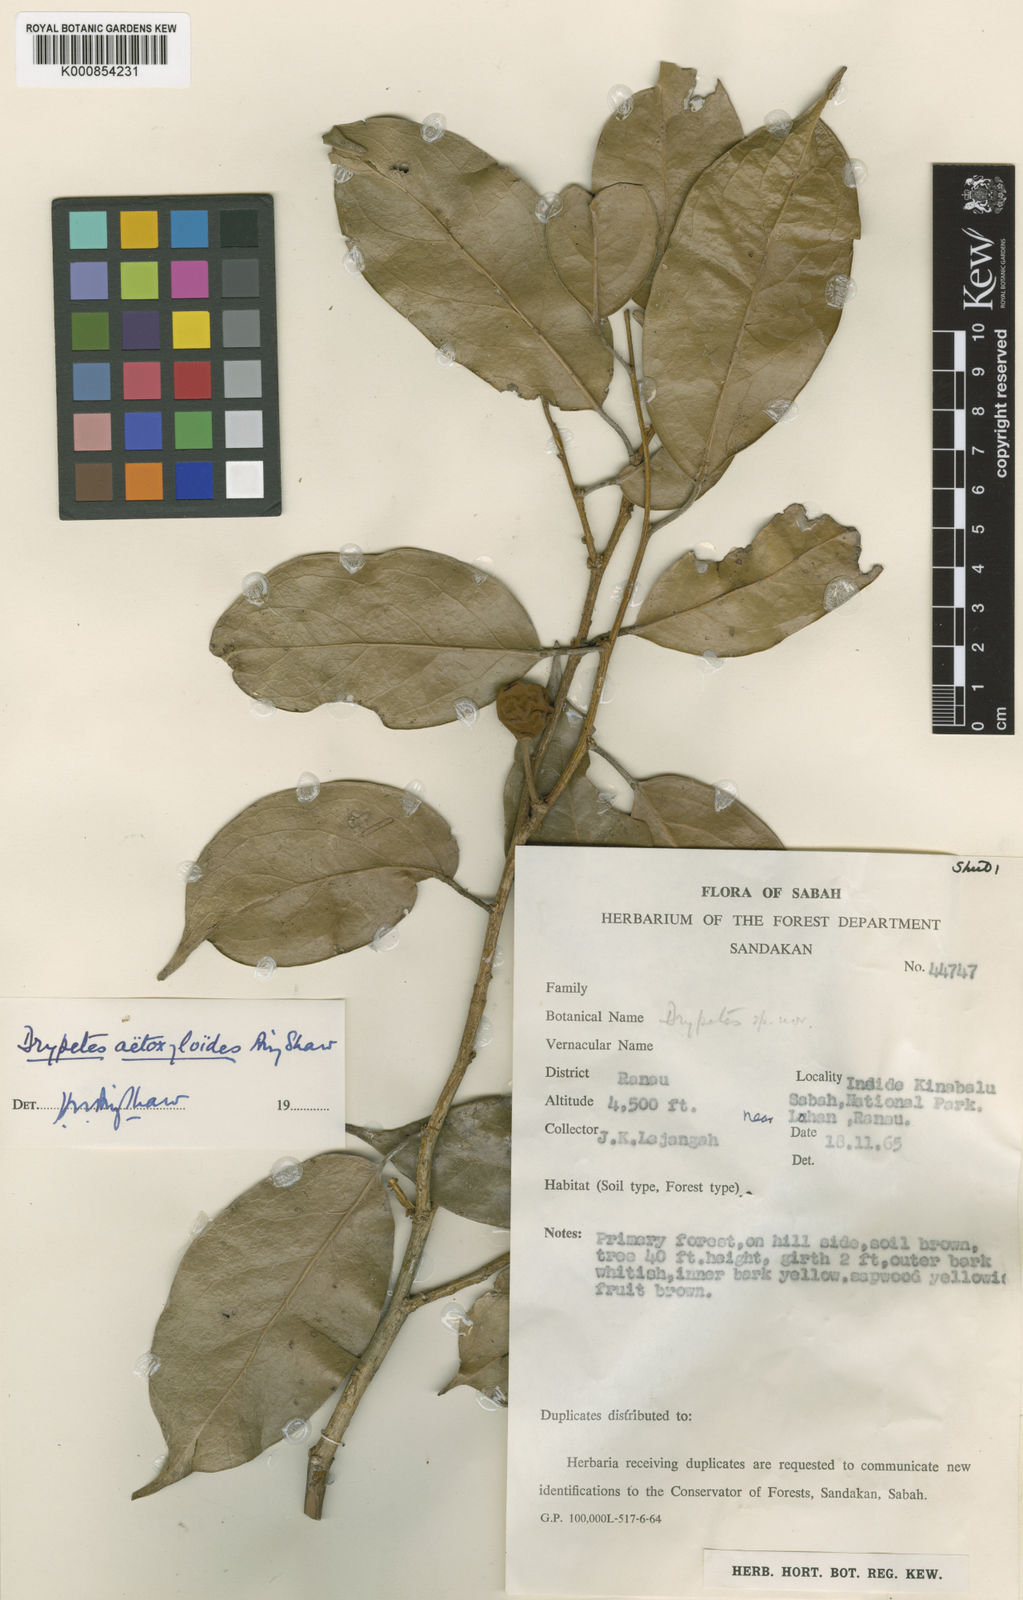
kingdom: Plantae
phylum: Tracheophyta
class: Magnoliopsida
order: Malpighiales
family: Putranjivaceae
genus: Drypetes
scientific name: Drypetes aetoxyloides
